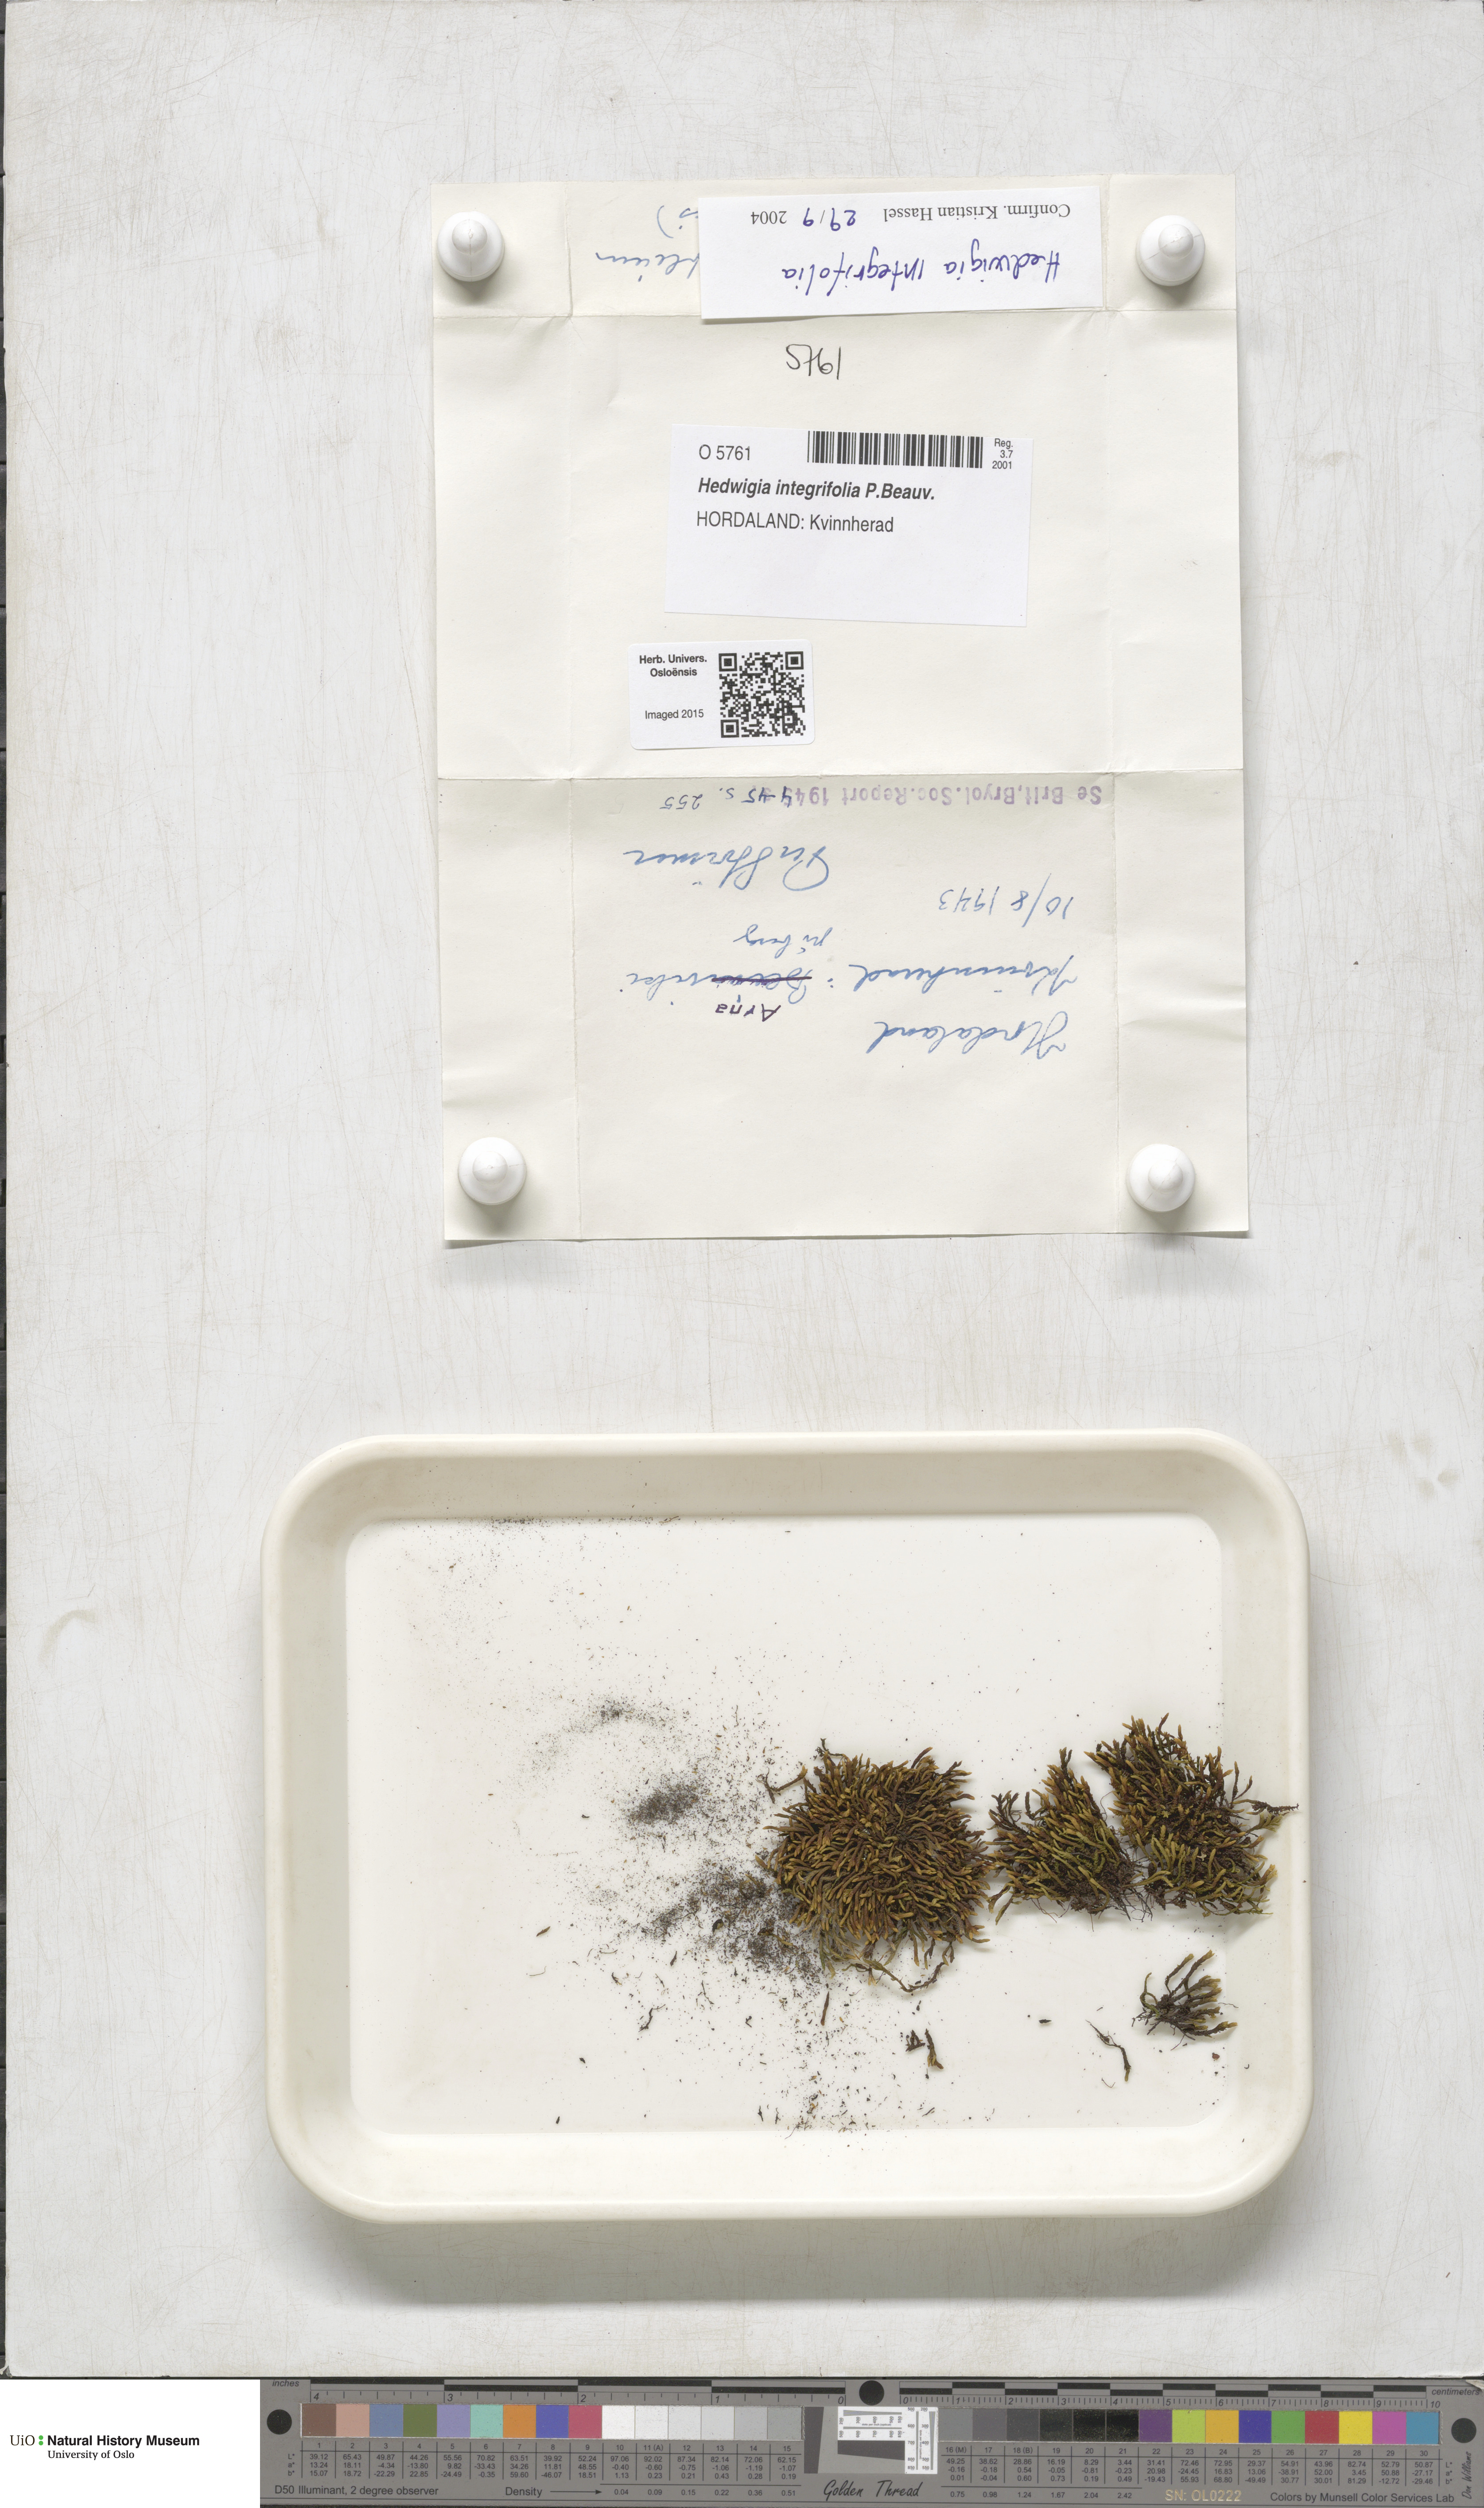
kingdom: Plantae
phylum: Bryophyta
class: Bryopsida
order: Hedwigiales
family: Hedwigiaceae
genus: Hedwigia
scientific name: Hedwigia filiformis
